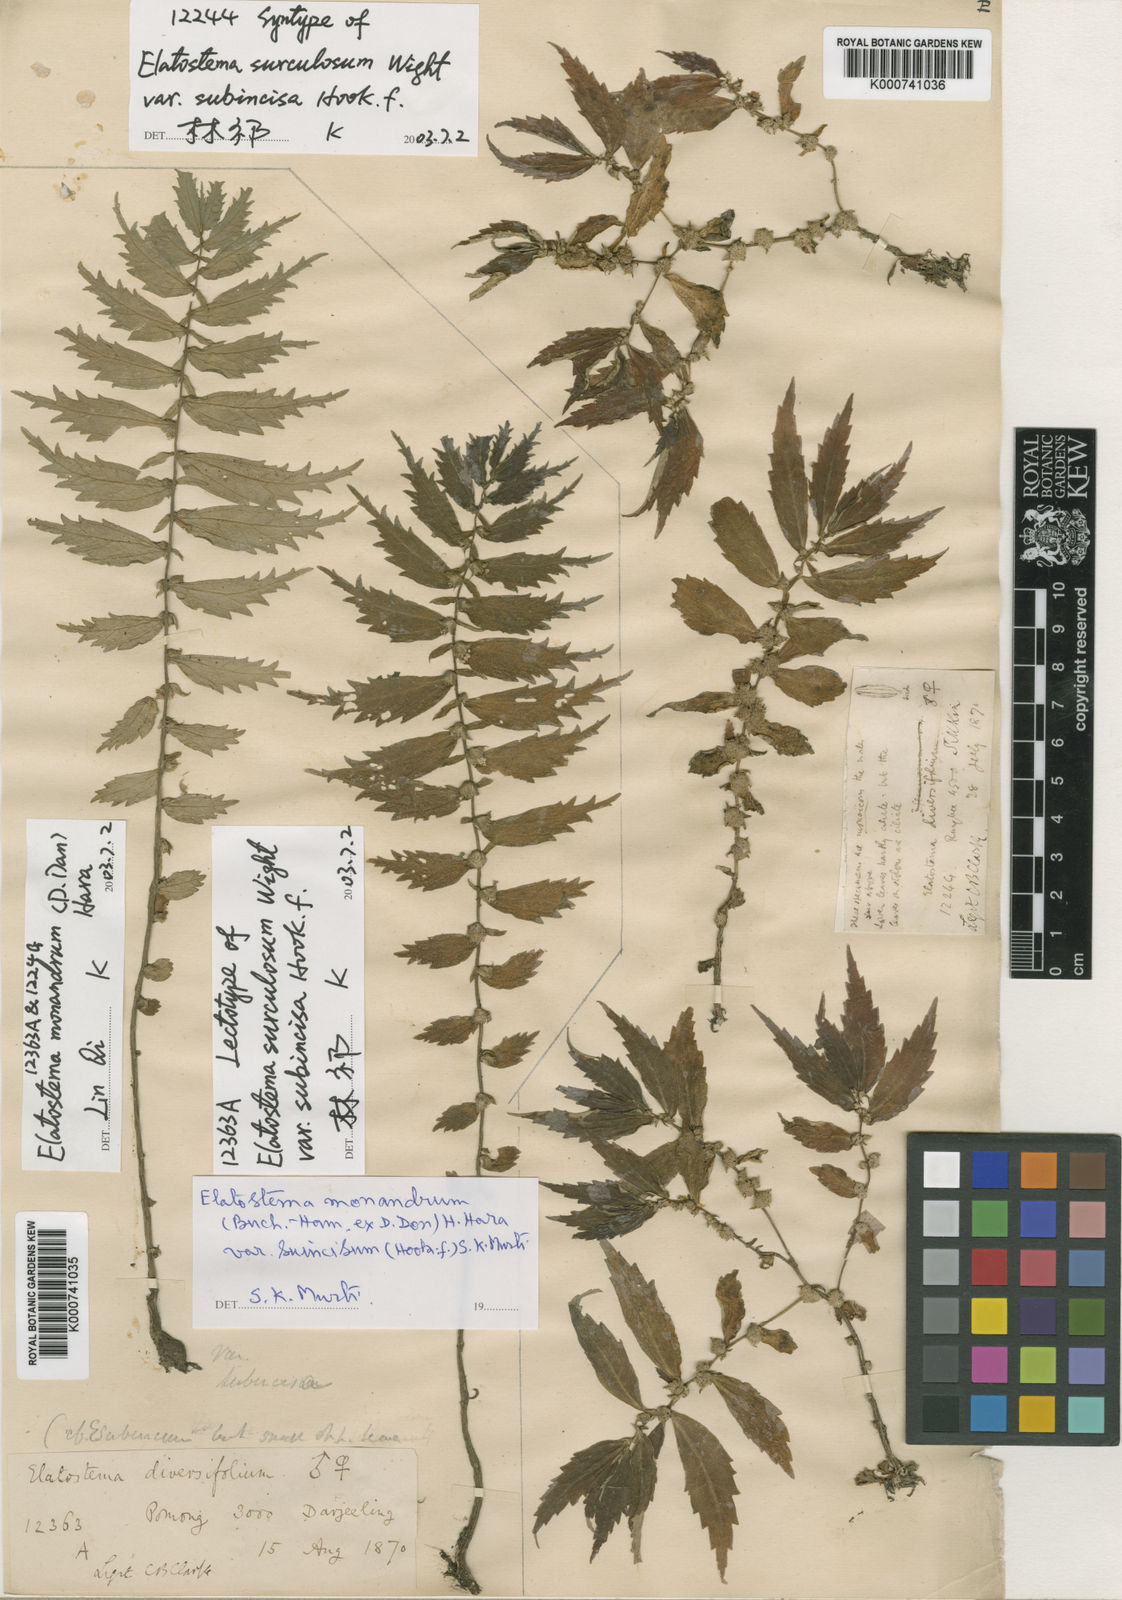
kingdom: Plantae
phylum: Tracheophyta
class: Magnoliopsida
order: Rosales
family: Urticaceae
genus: Elatostema
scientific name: Elatostema monandrum
